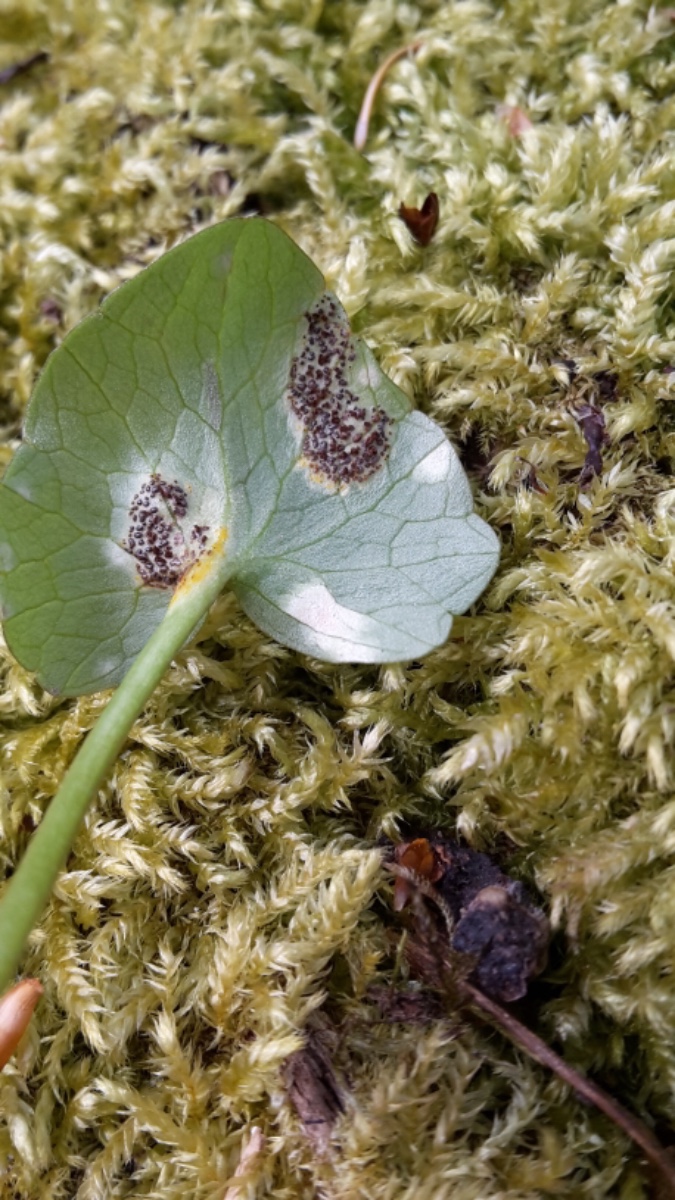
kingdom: Fungi
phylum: Basidiomycota
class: Pucciniomycetes
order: Pucciniales
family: Pucciniaceae
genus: Uromyces
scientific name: Uromyces ficariae
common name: vorterod-encellerust
